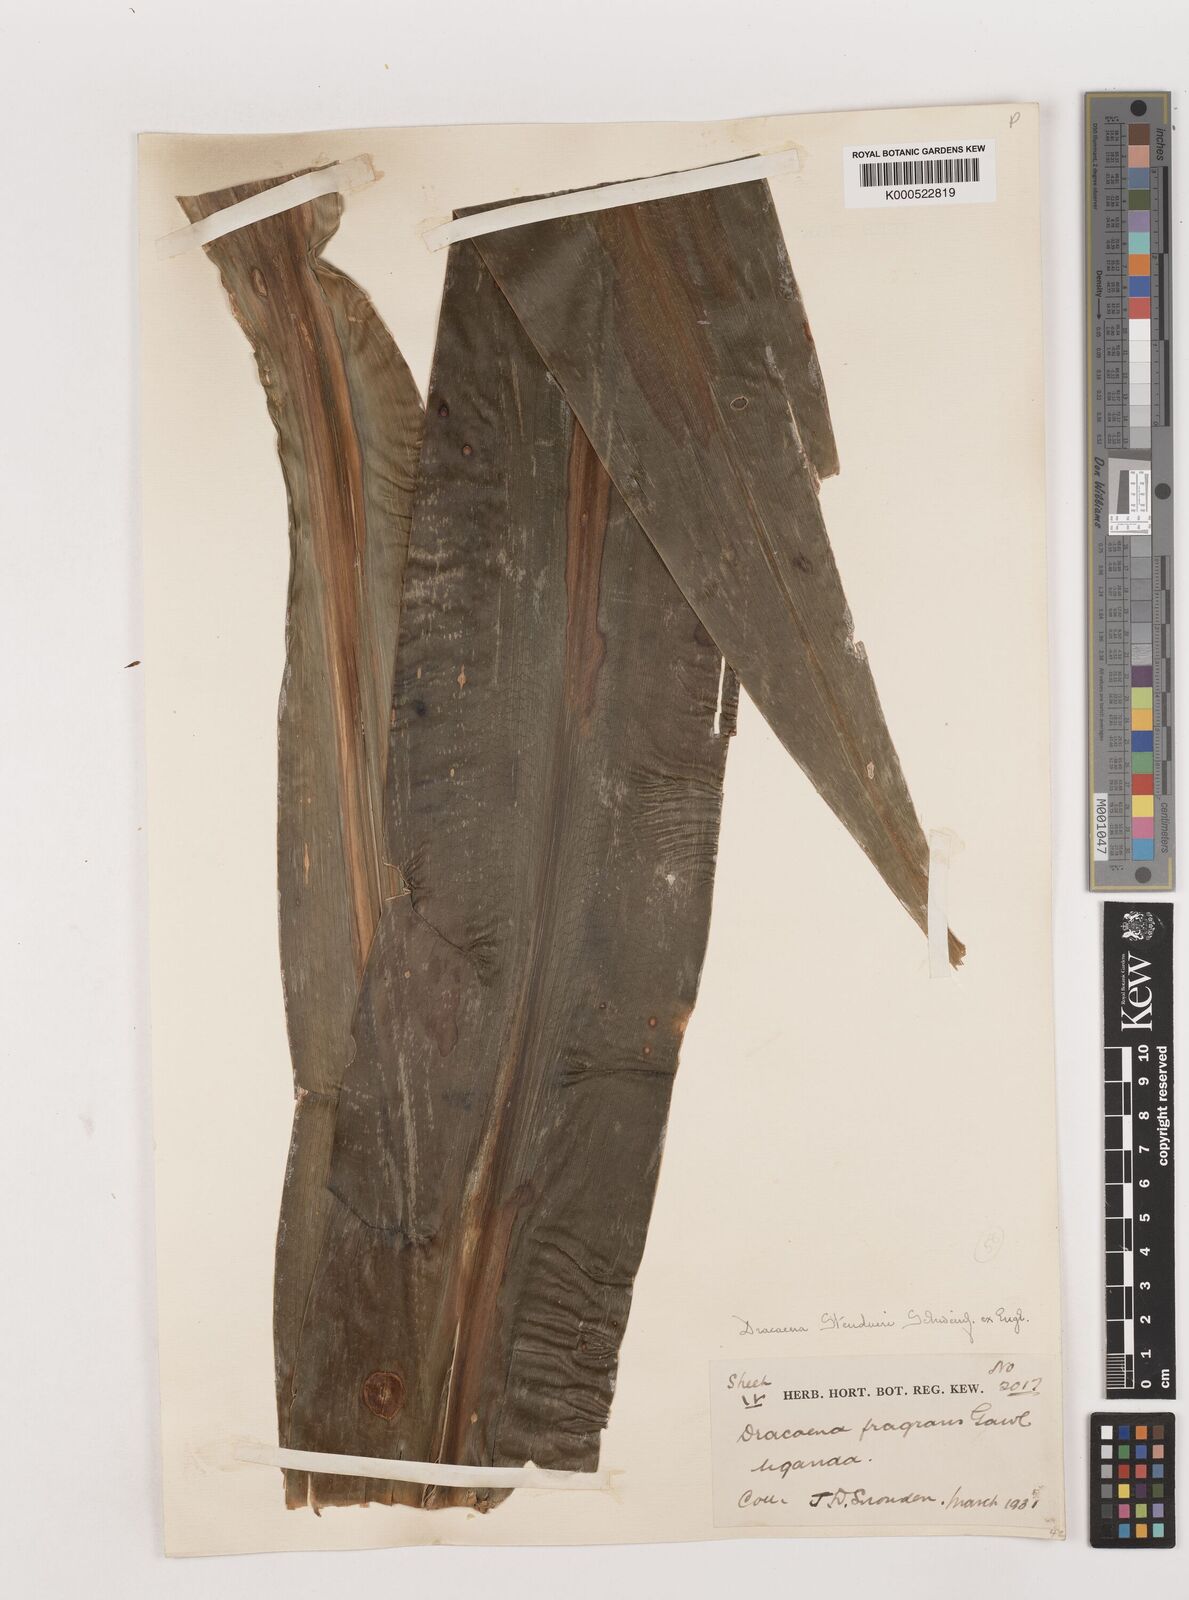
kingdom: Plantae
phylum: Tracheophyta
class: Liliopsida
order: Asparagales
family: Asparagaceae
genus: Dracaena
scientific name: Dracaena steudneri
